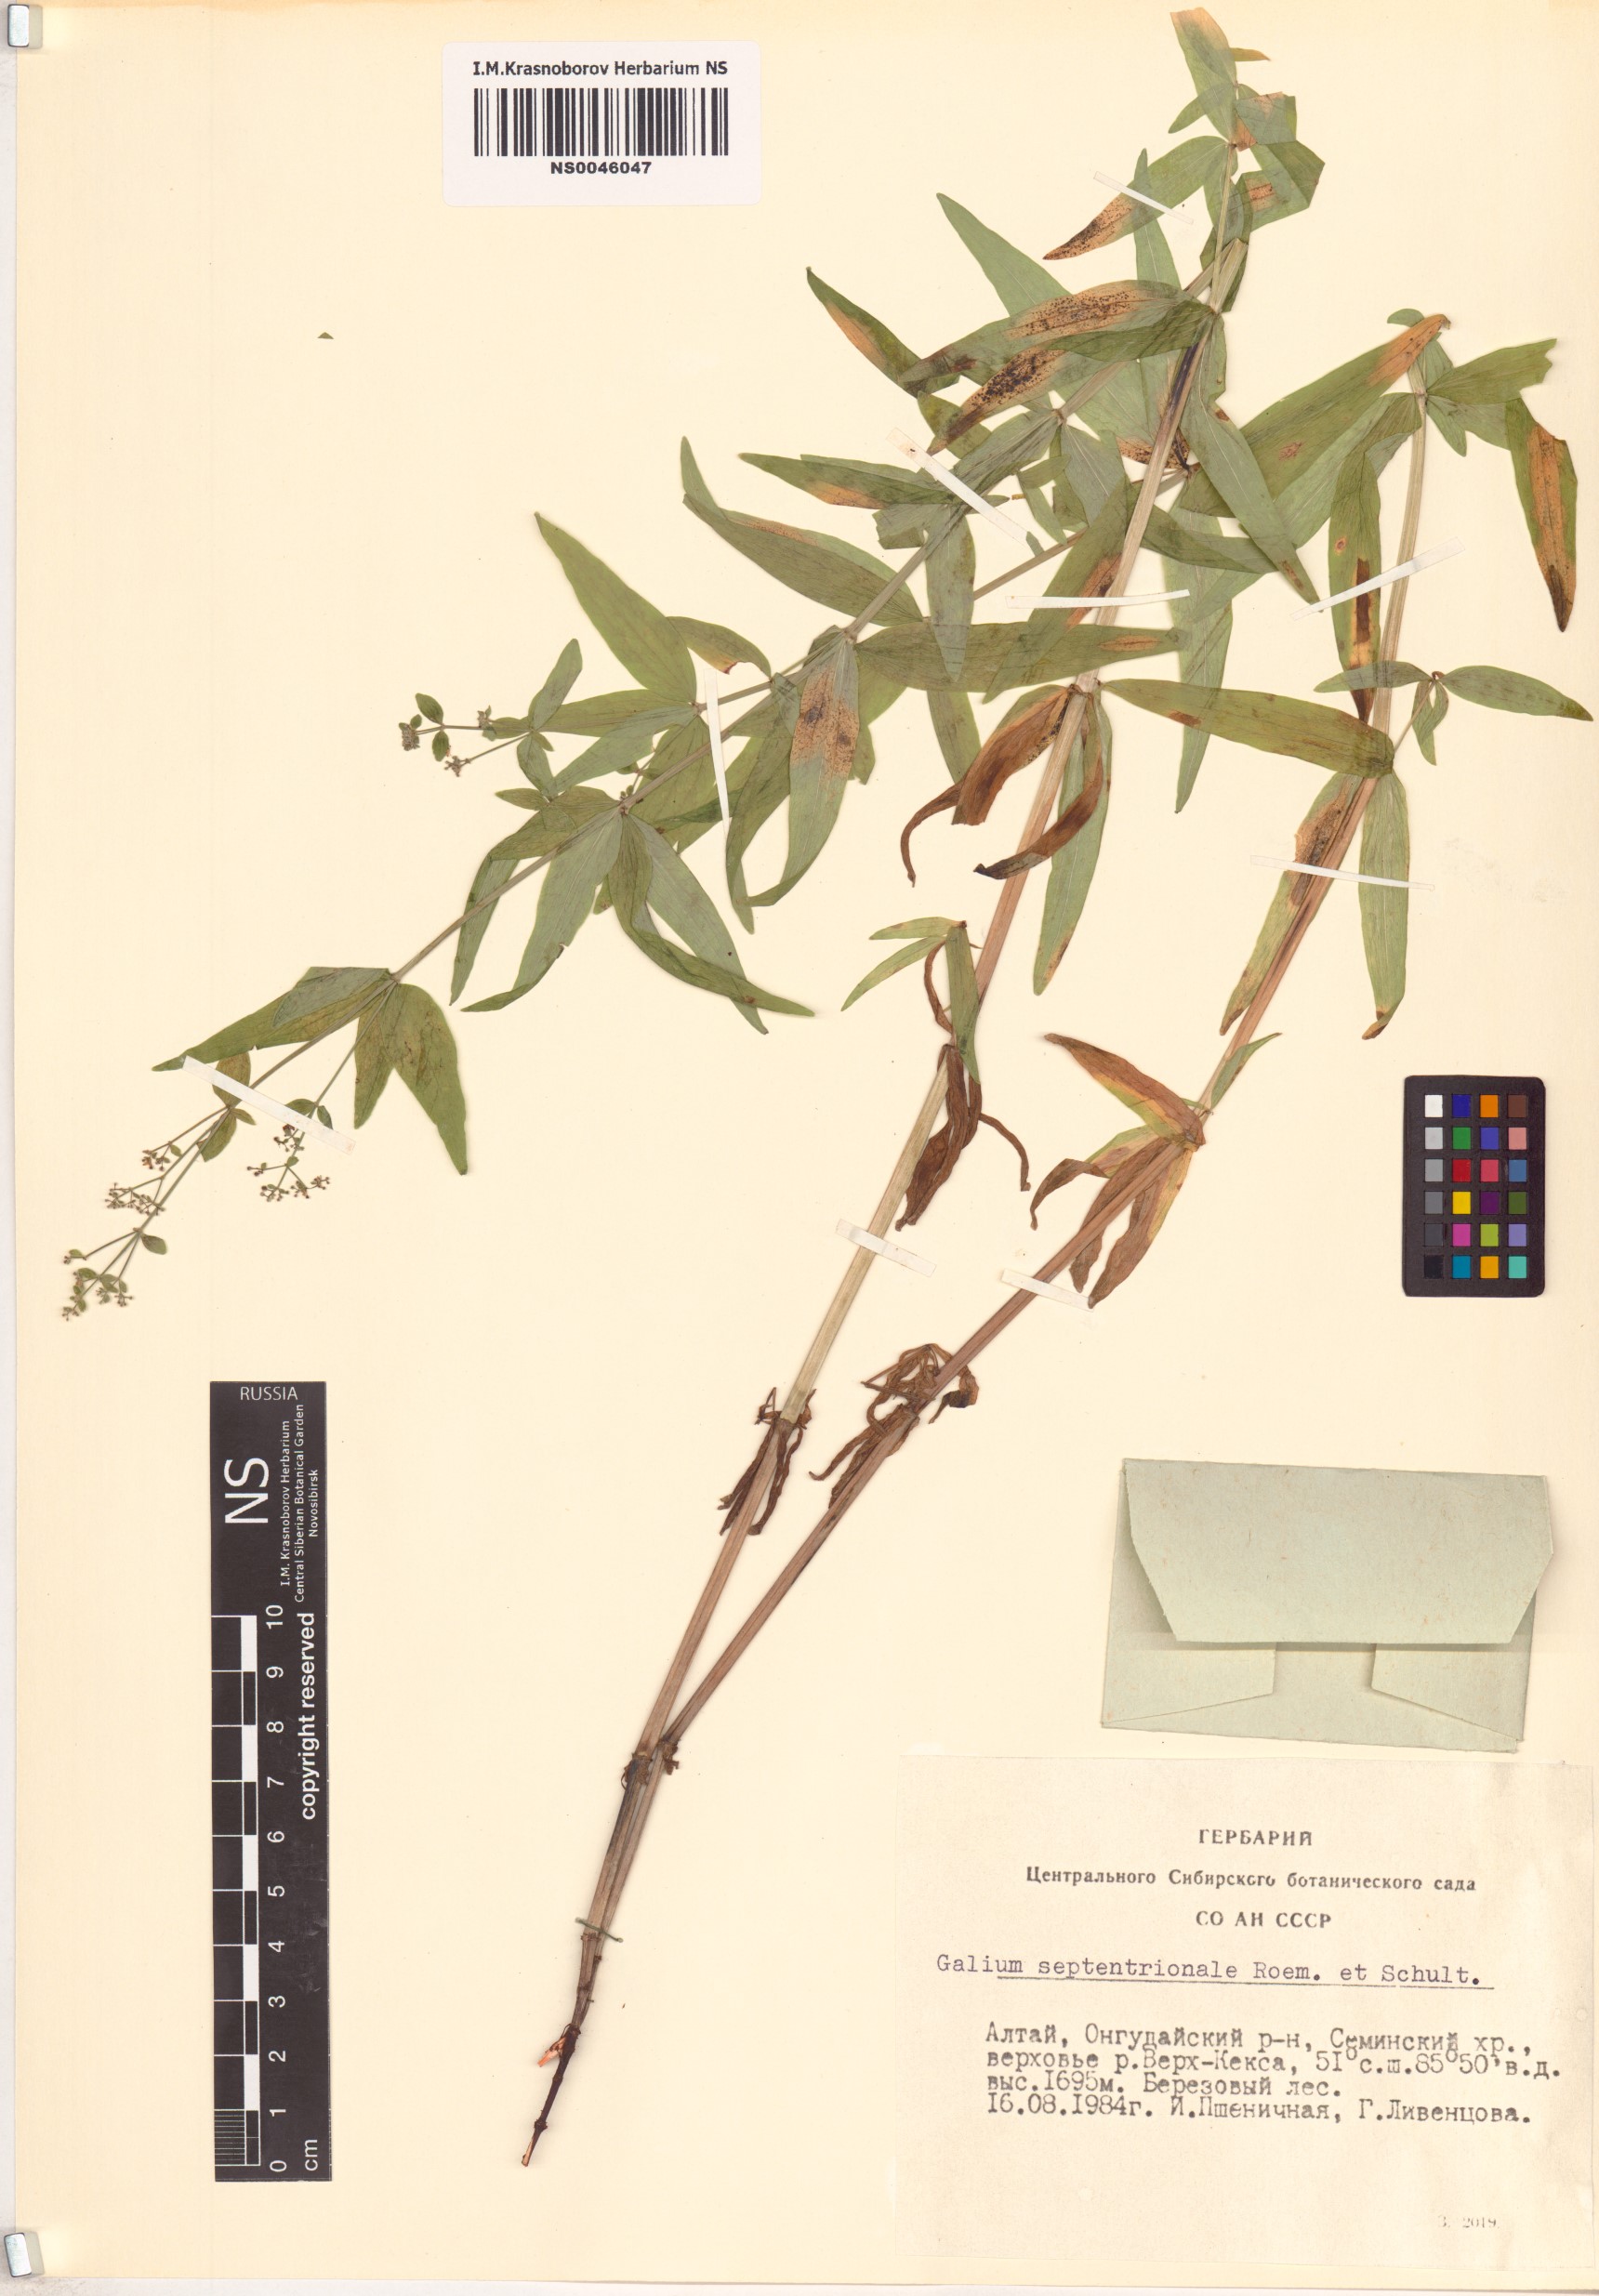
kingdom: Plantae
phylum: Tracheophyta
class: Magnoliopsida
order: Gentianales
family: Rubiaceae
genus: Galium
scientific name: Galium boreale
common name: Northern bedstraw
